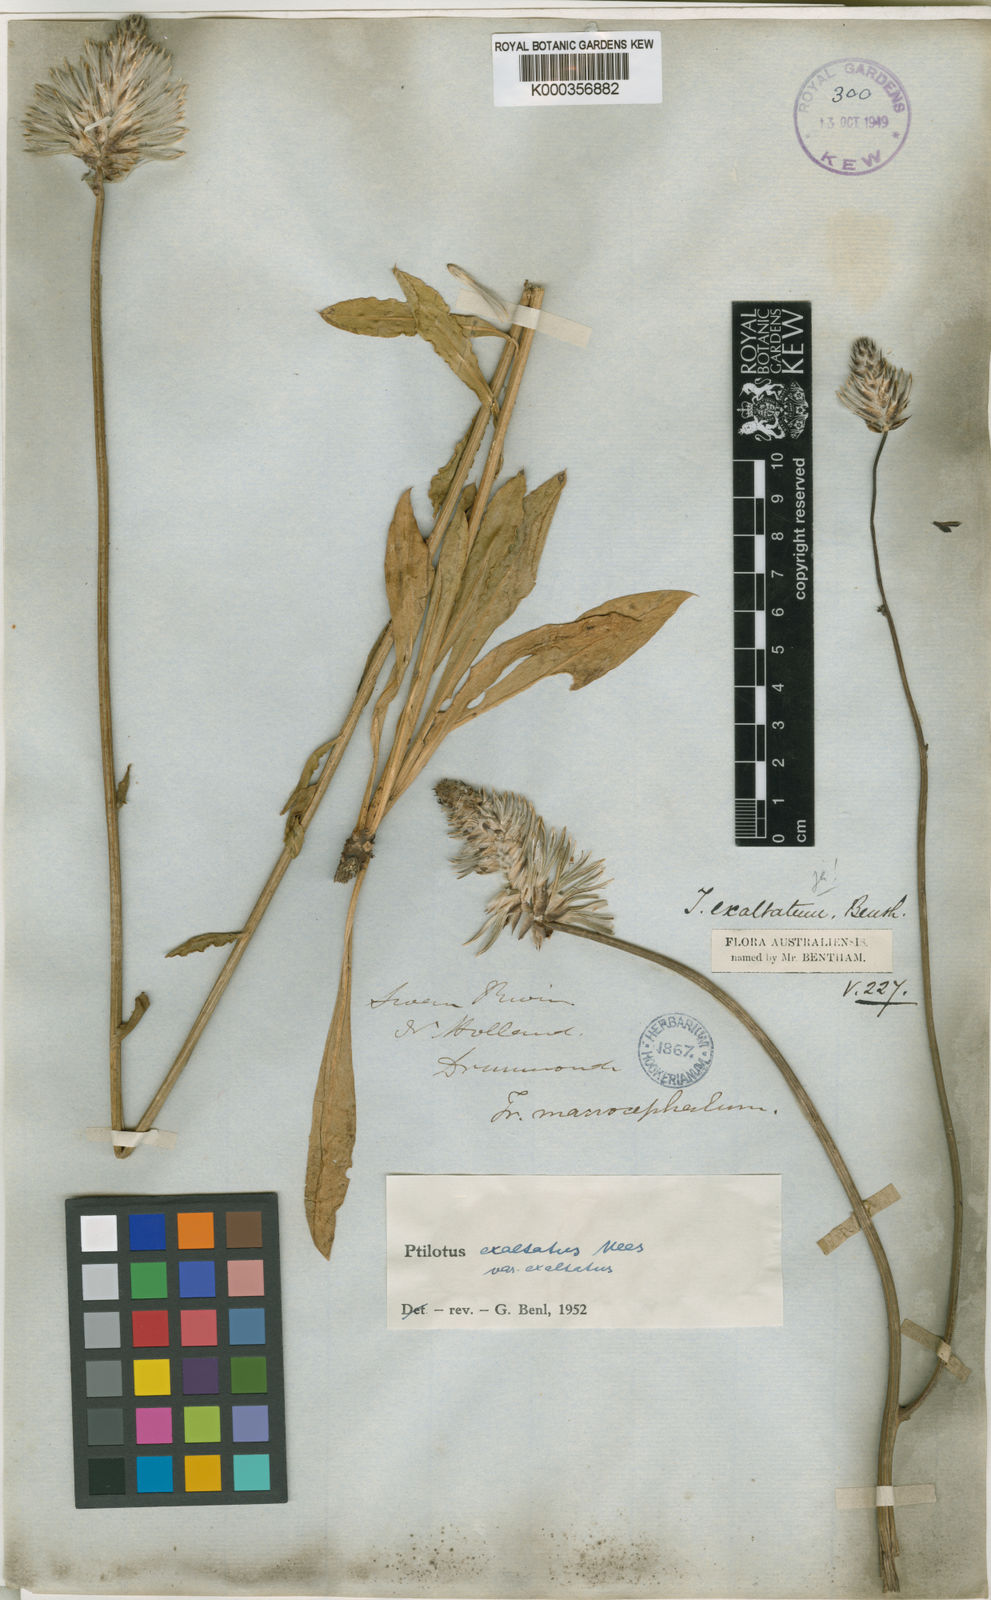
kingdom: Plantae
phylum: Tracheophyta
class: Magnoliopsida
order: Caryophyllales
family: Amaranthaceae
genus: Ptilotus
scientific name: Ptilotus
